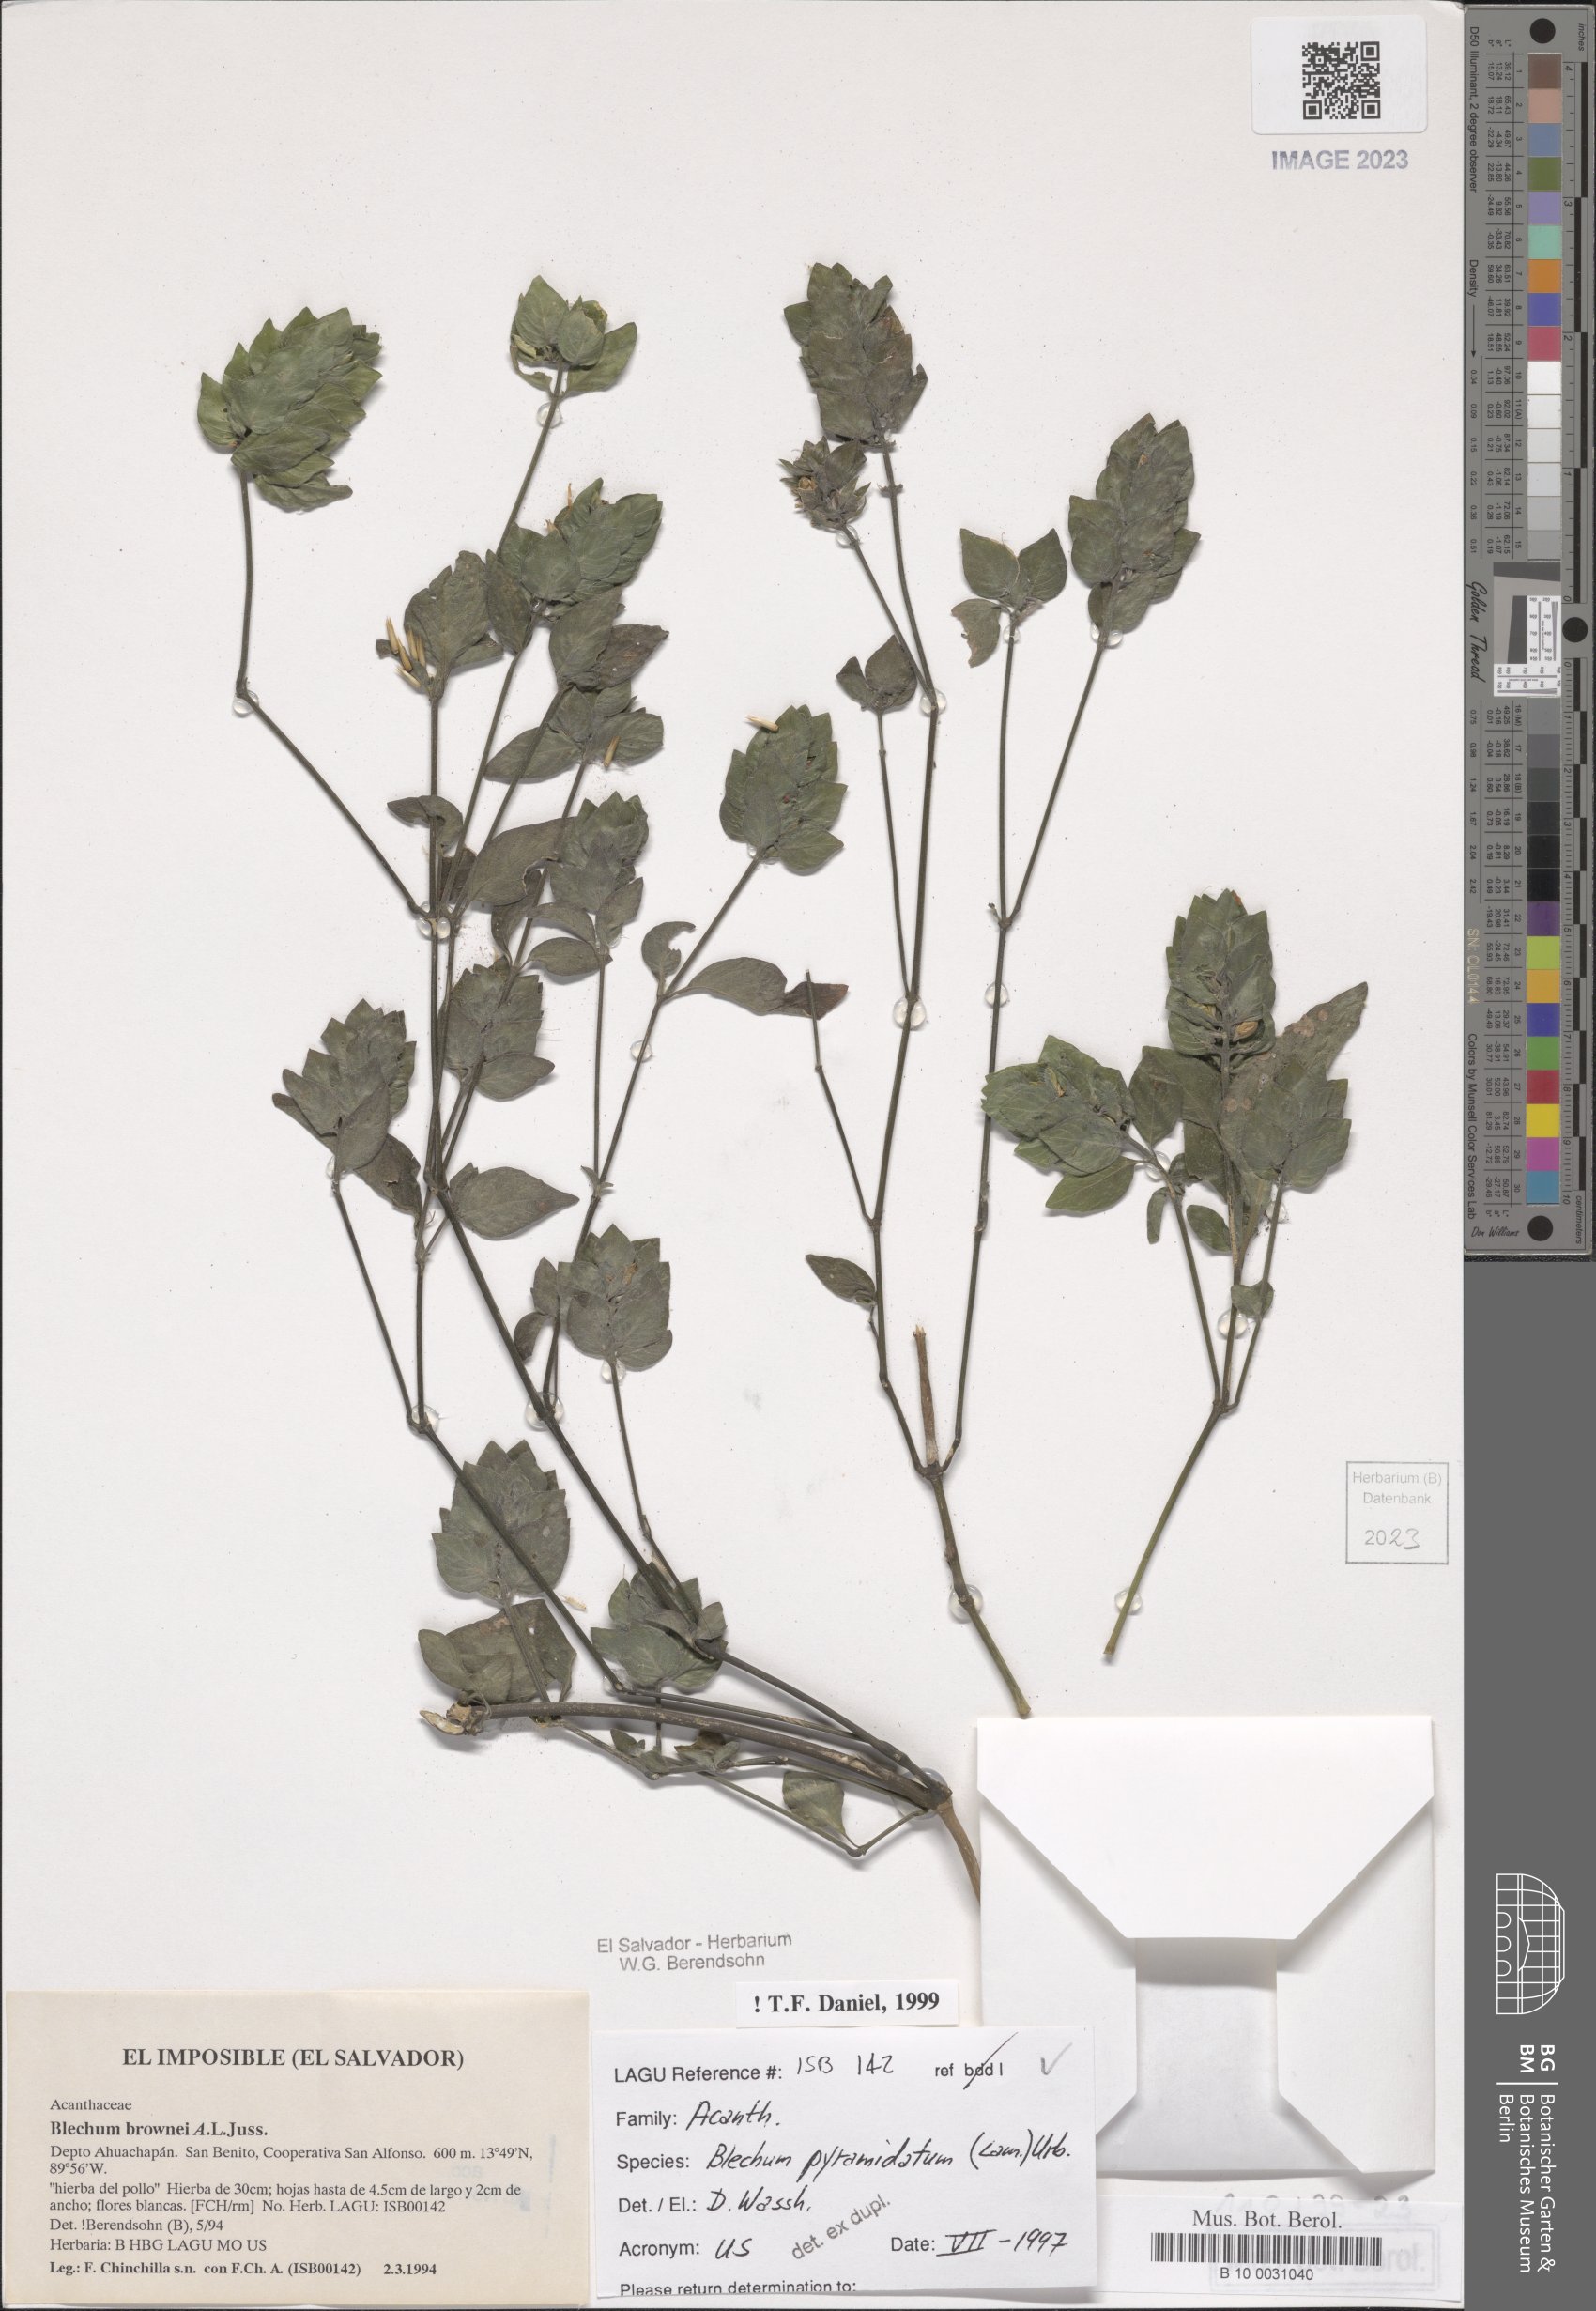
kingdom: Plantae
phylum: Tracheophyta
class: Magnoliopsida
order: Lamiales
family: Acanthaceae
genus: Ruellia
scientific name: Ruellia blechum
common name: Browne's blechum
